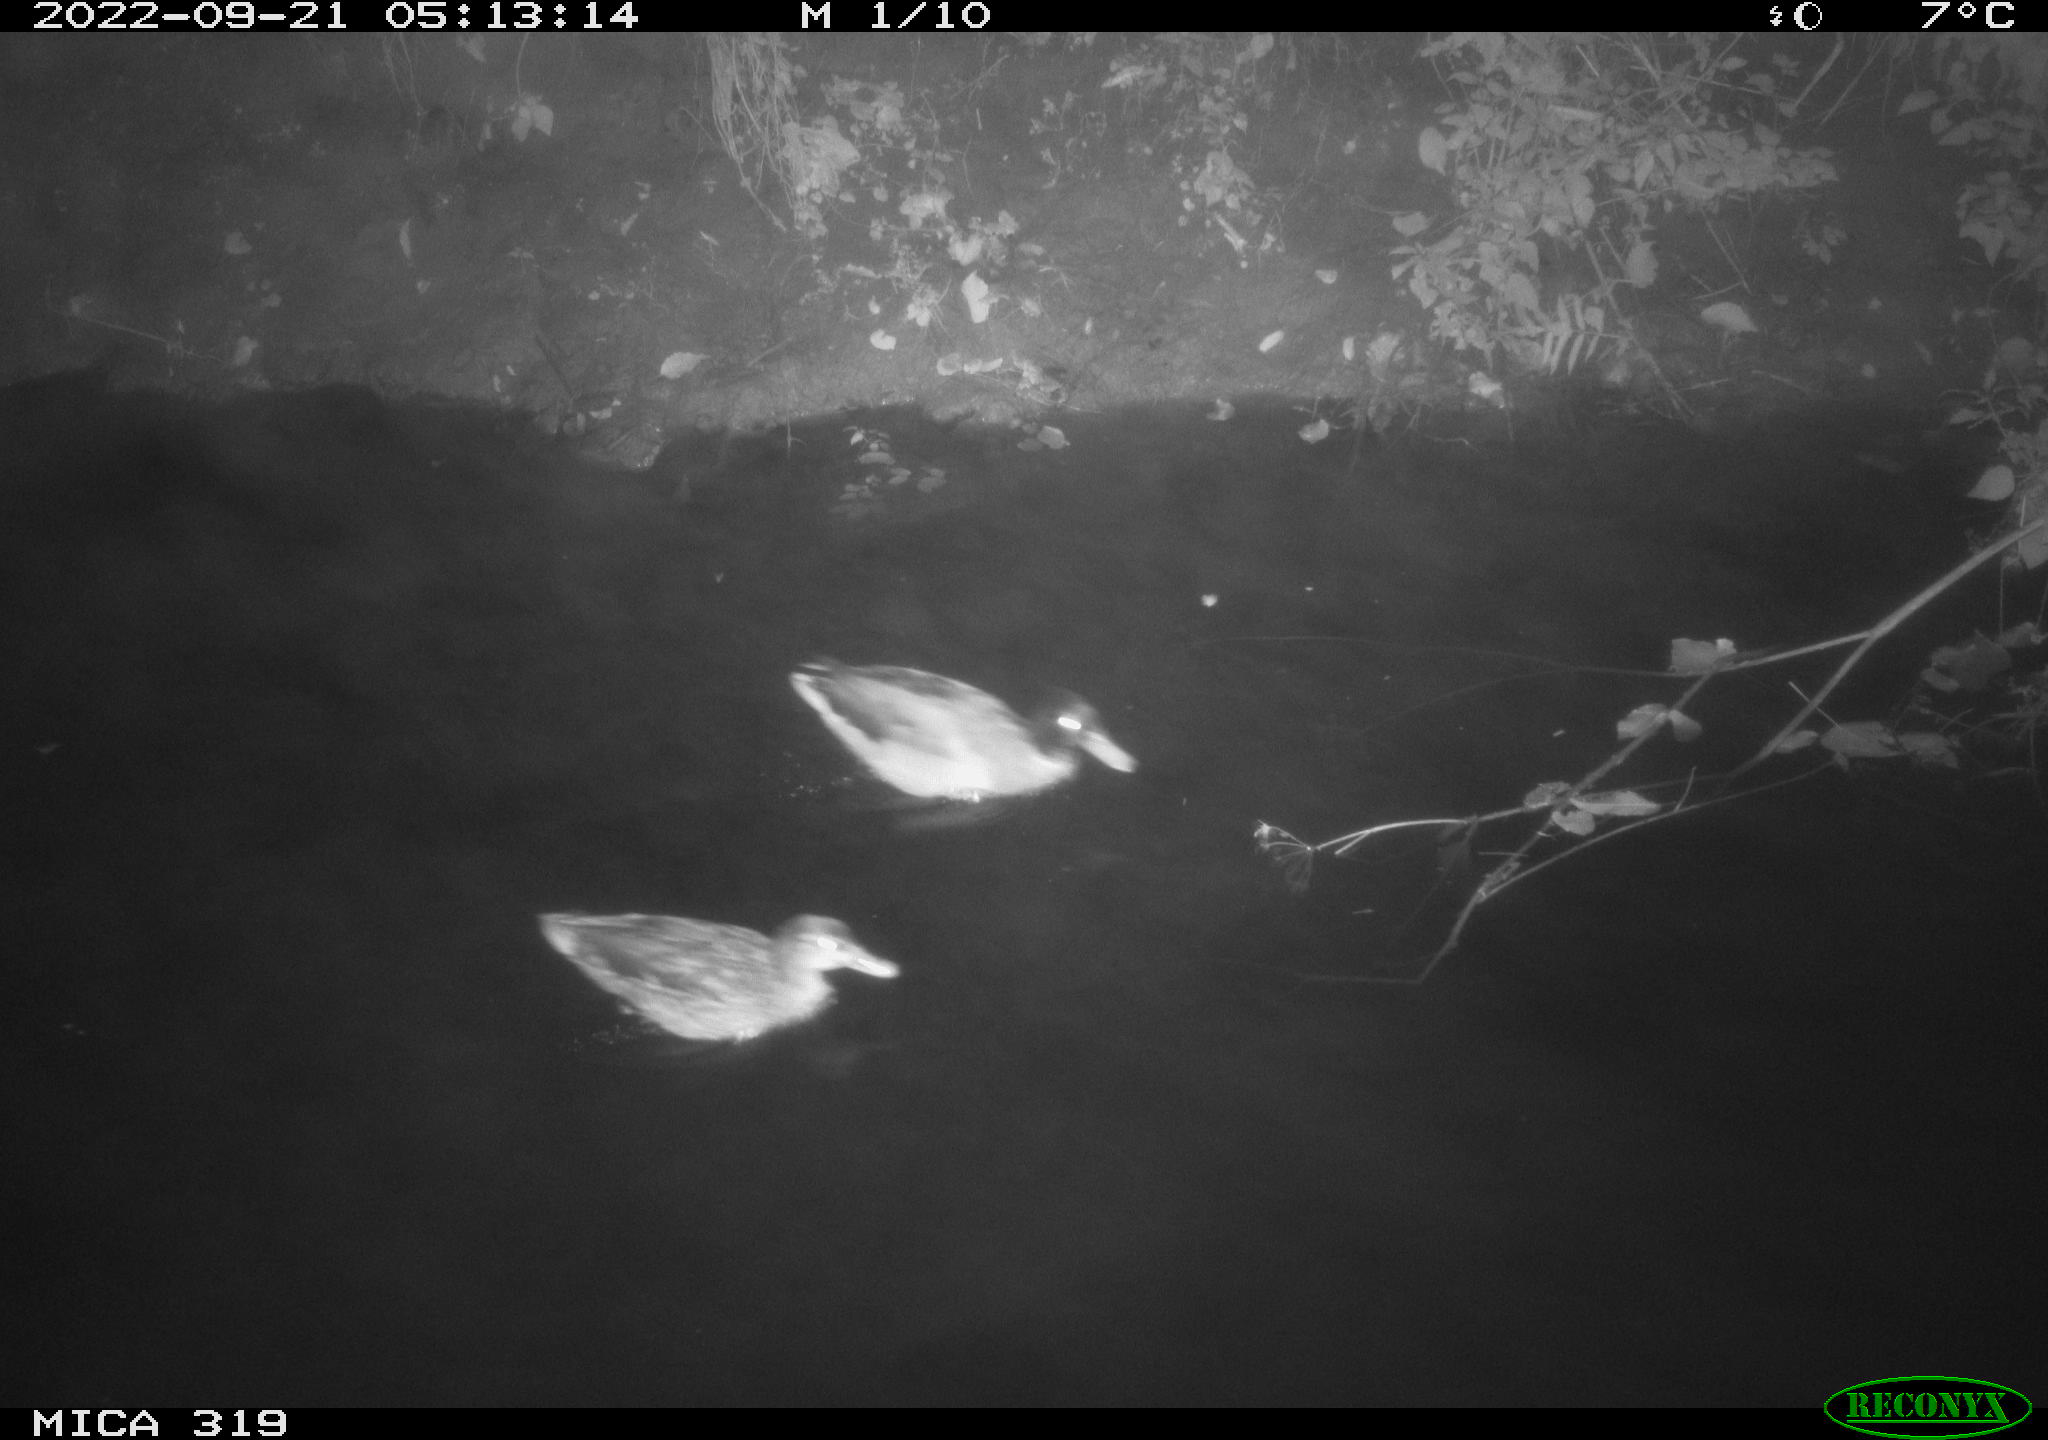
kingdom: Animalia
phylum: Chordata
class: Aves
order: Anseriformes
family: Anatidae
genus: Anas
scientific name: Anas
